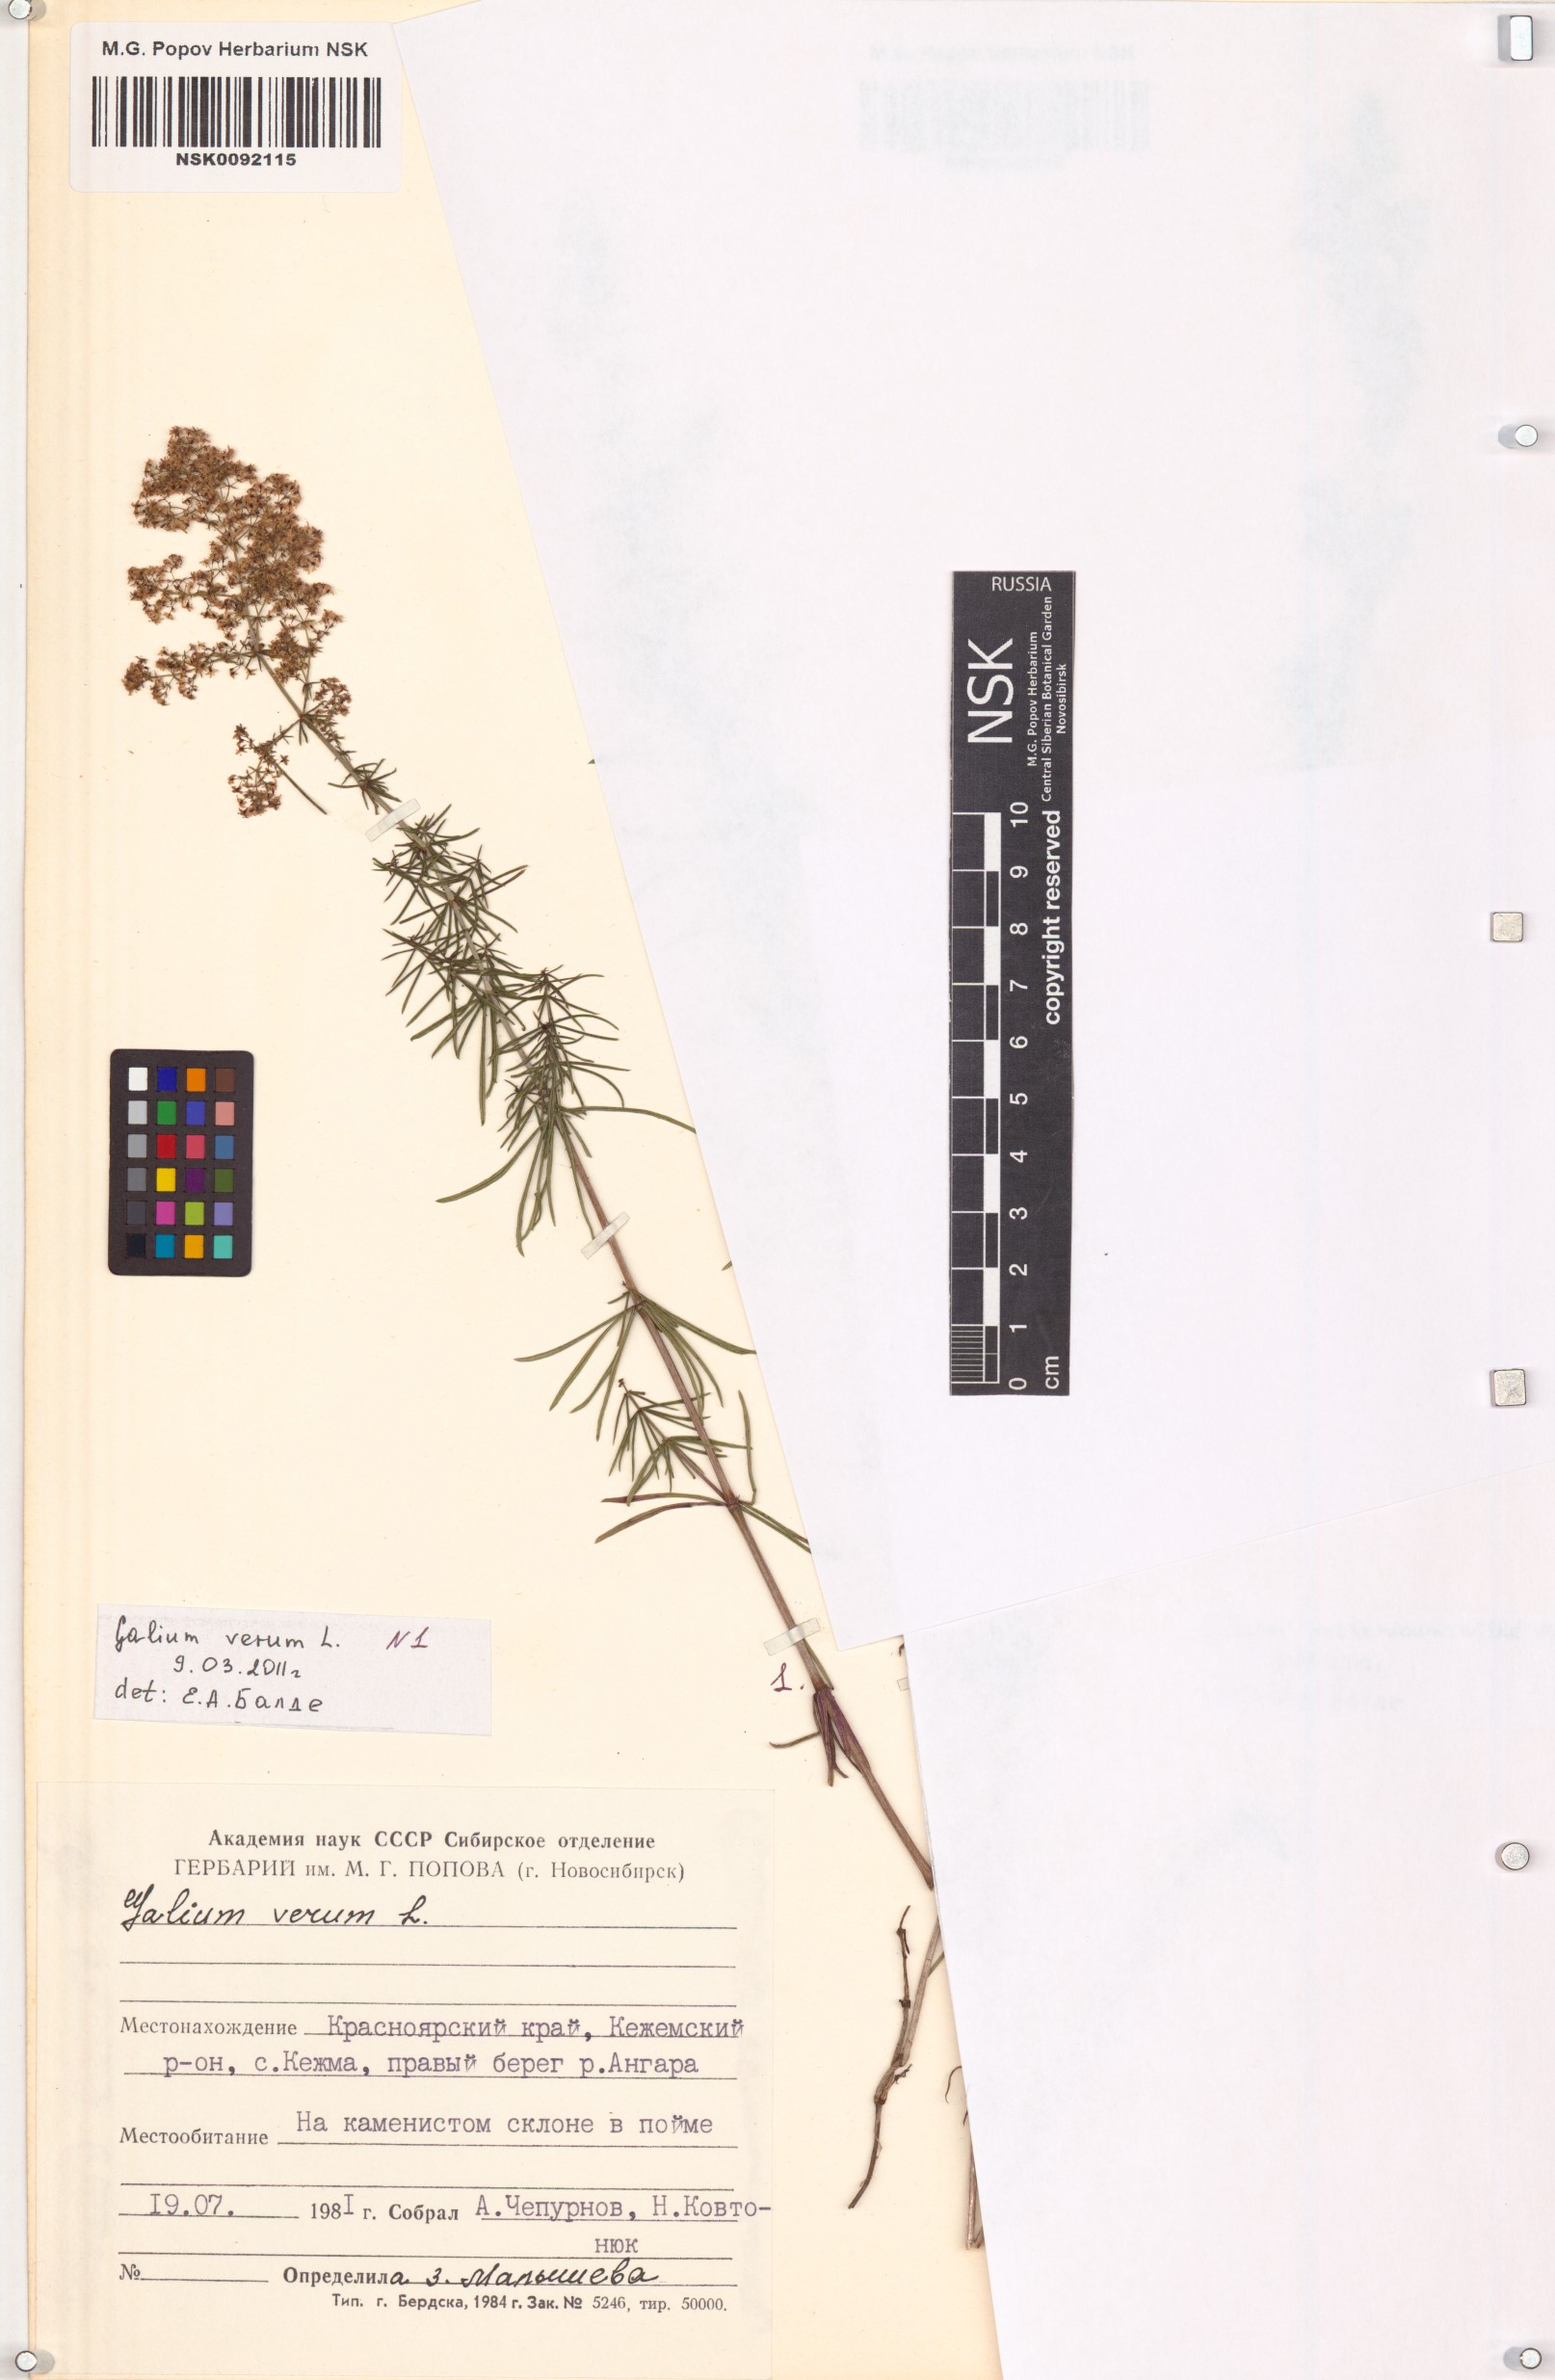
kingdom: Plantae
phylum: Tracheophyta
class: Magnoliopsida
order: Gentianales
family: Rubiaceae
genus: Galium
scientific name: Galium verum
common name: Lady's bedstraw
